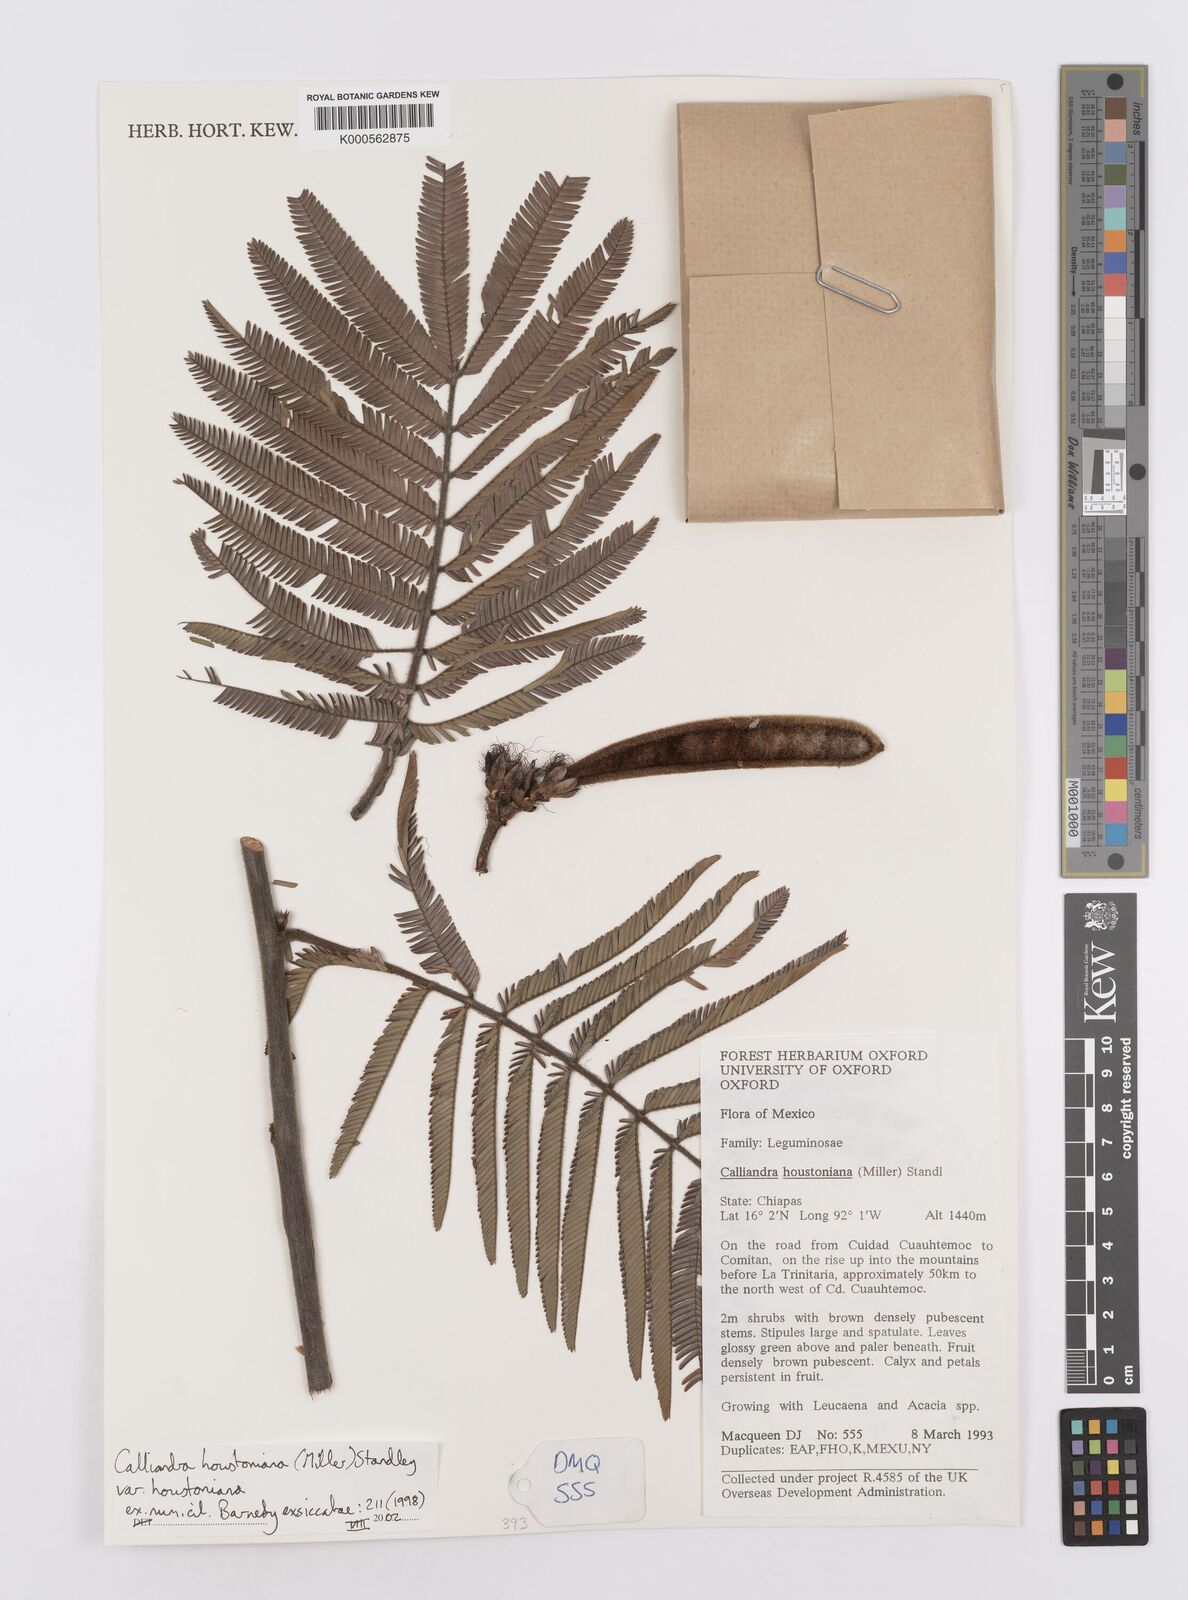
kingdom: Plantae
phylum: Tracheophyta
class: Magnoliopsida
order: Fabales
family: Fabaceae
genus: Calliandra
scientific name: Calliandra houstoniana
